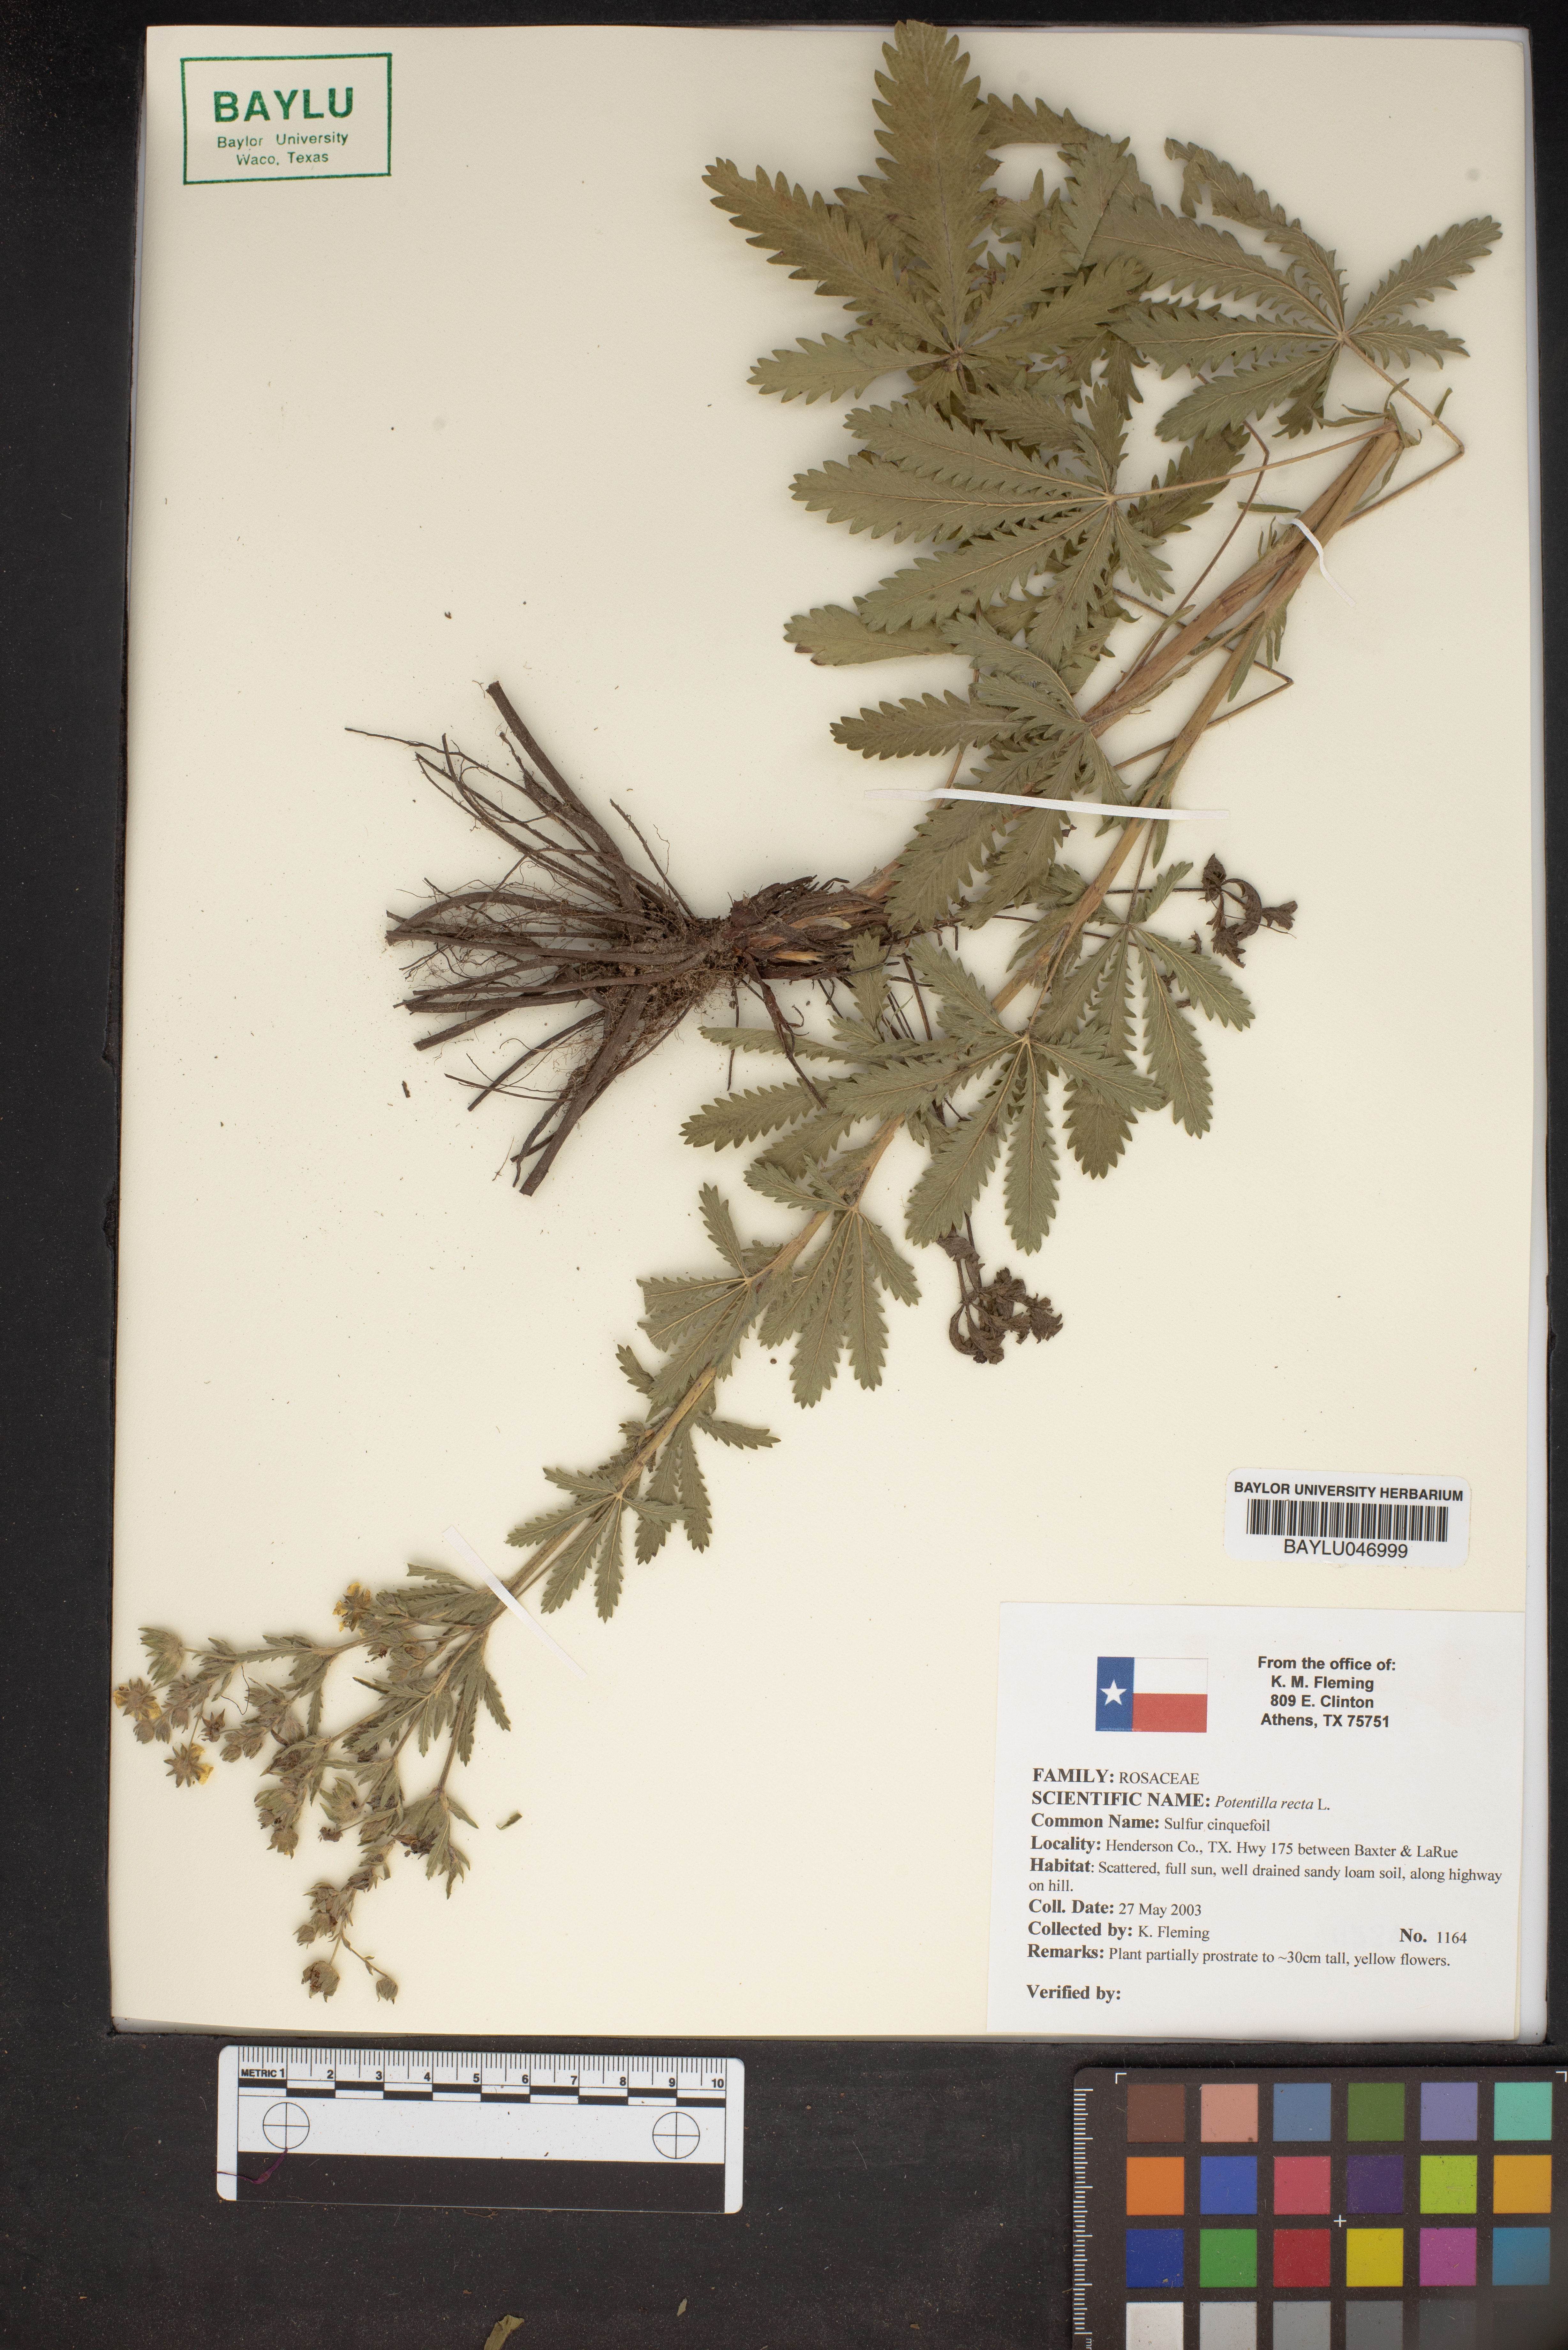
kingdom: Plantae
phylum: Tracheophyta
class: Magnoliopsida
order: Rosales
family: Rosaceae
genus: Potentilla
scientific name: Potentilla recta
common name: Sulphur cinquefoil
